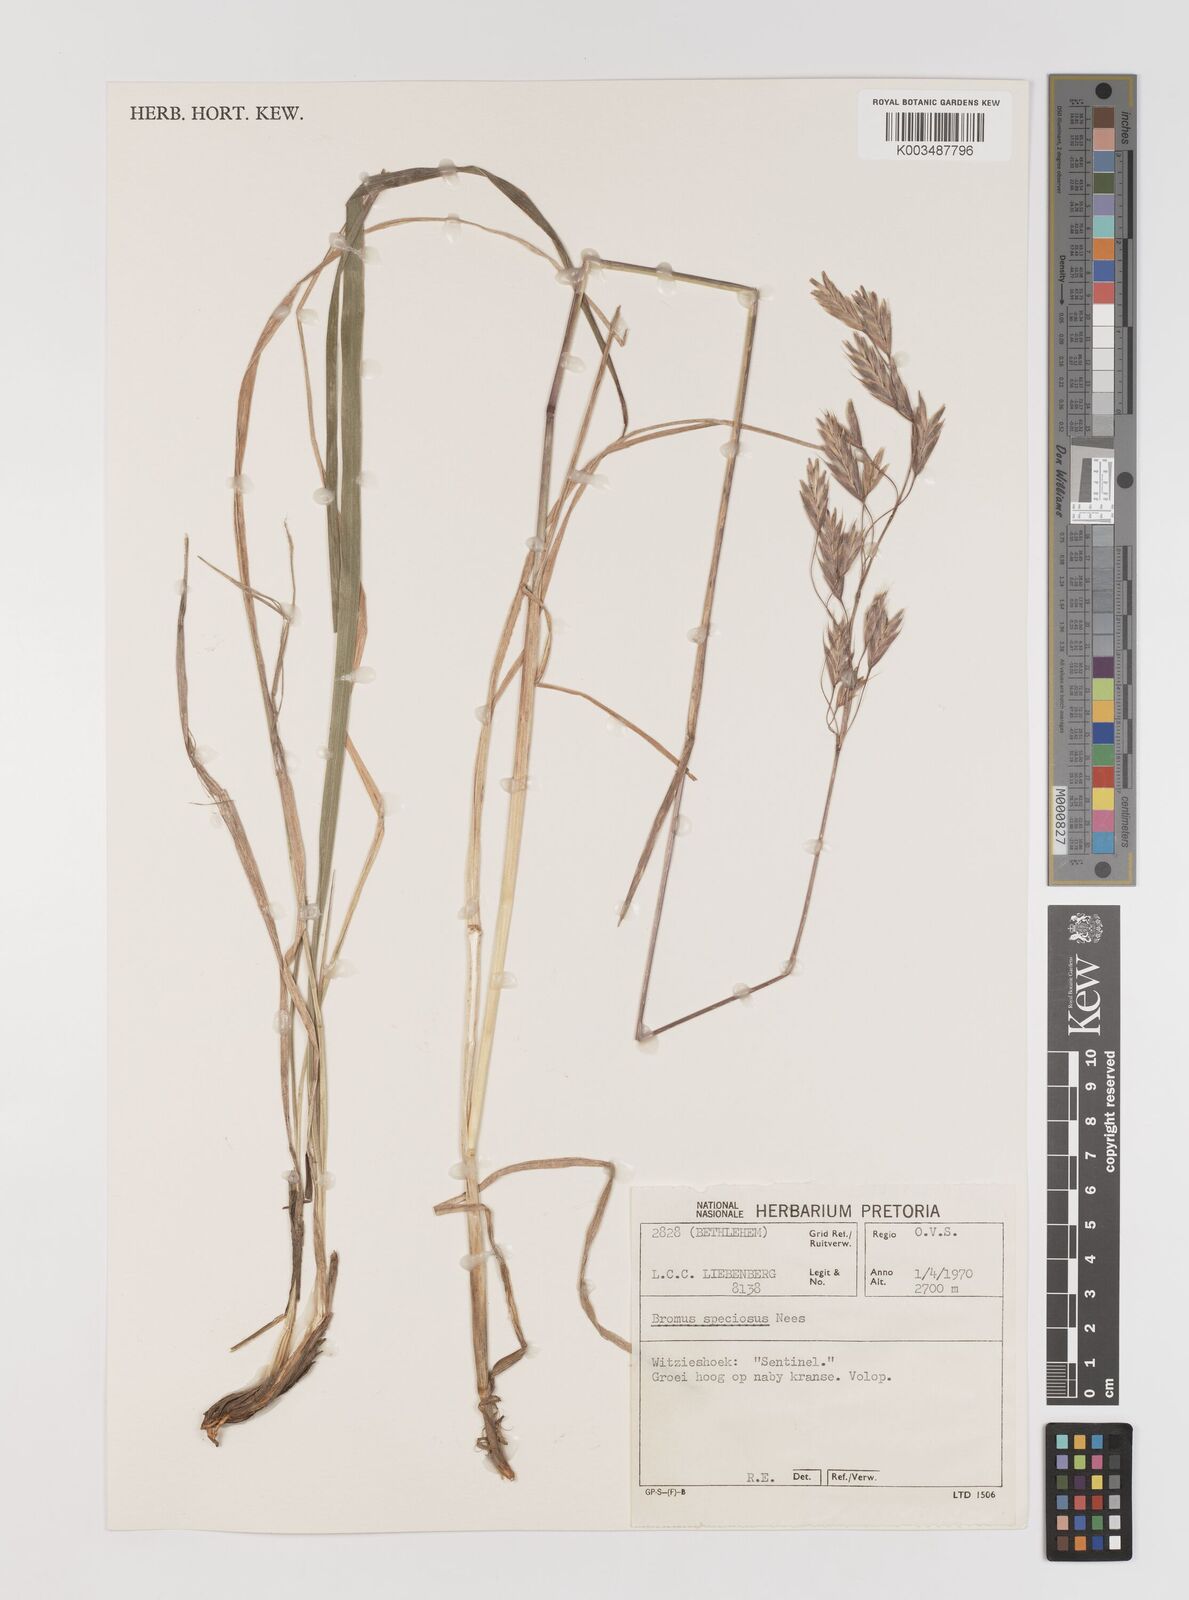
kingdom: Plantae
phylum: Tracheophyta
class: Liliopsida
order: Poales
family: Poaceae
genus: Bromus
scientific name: Bromus speciosus
